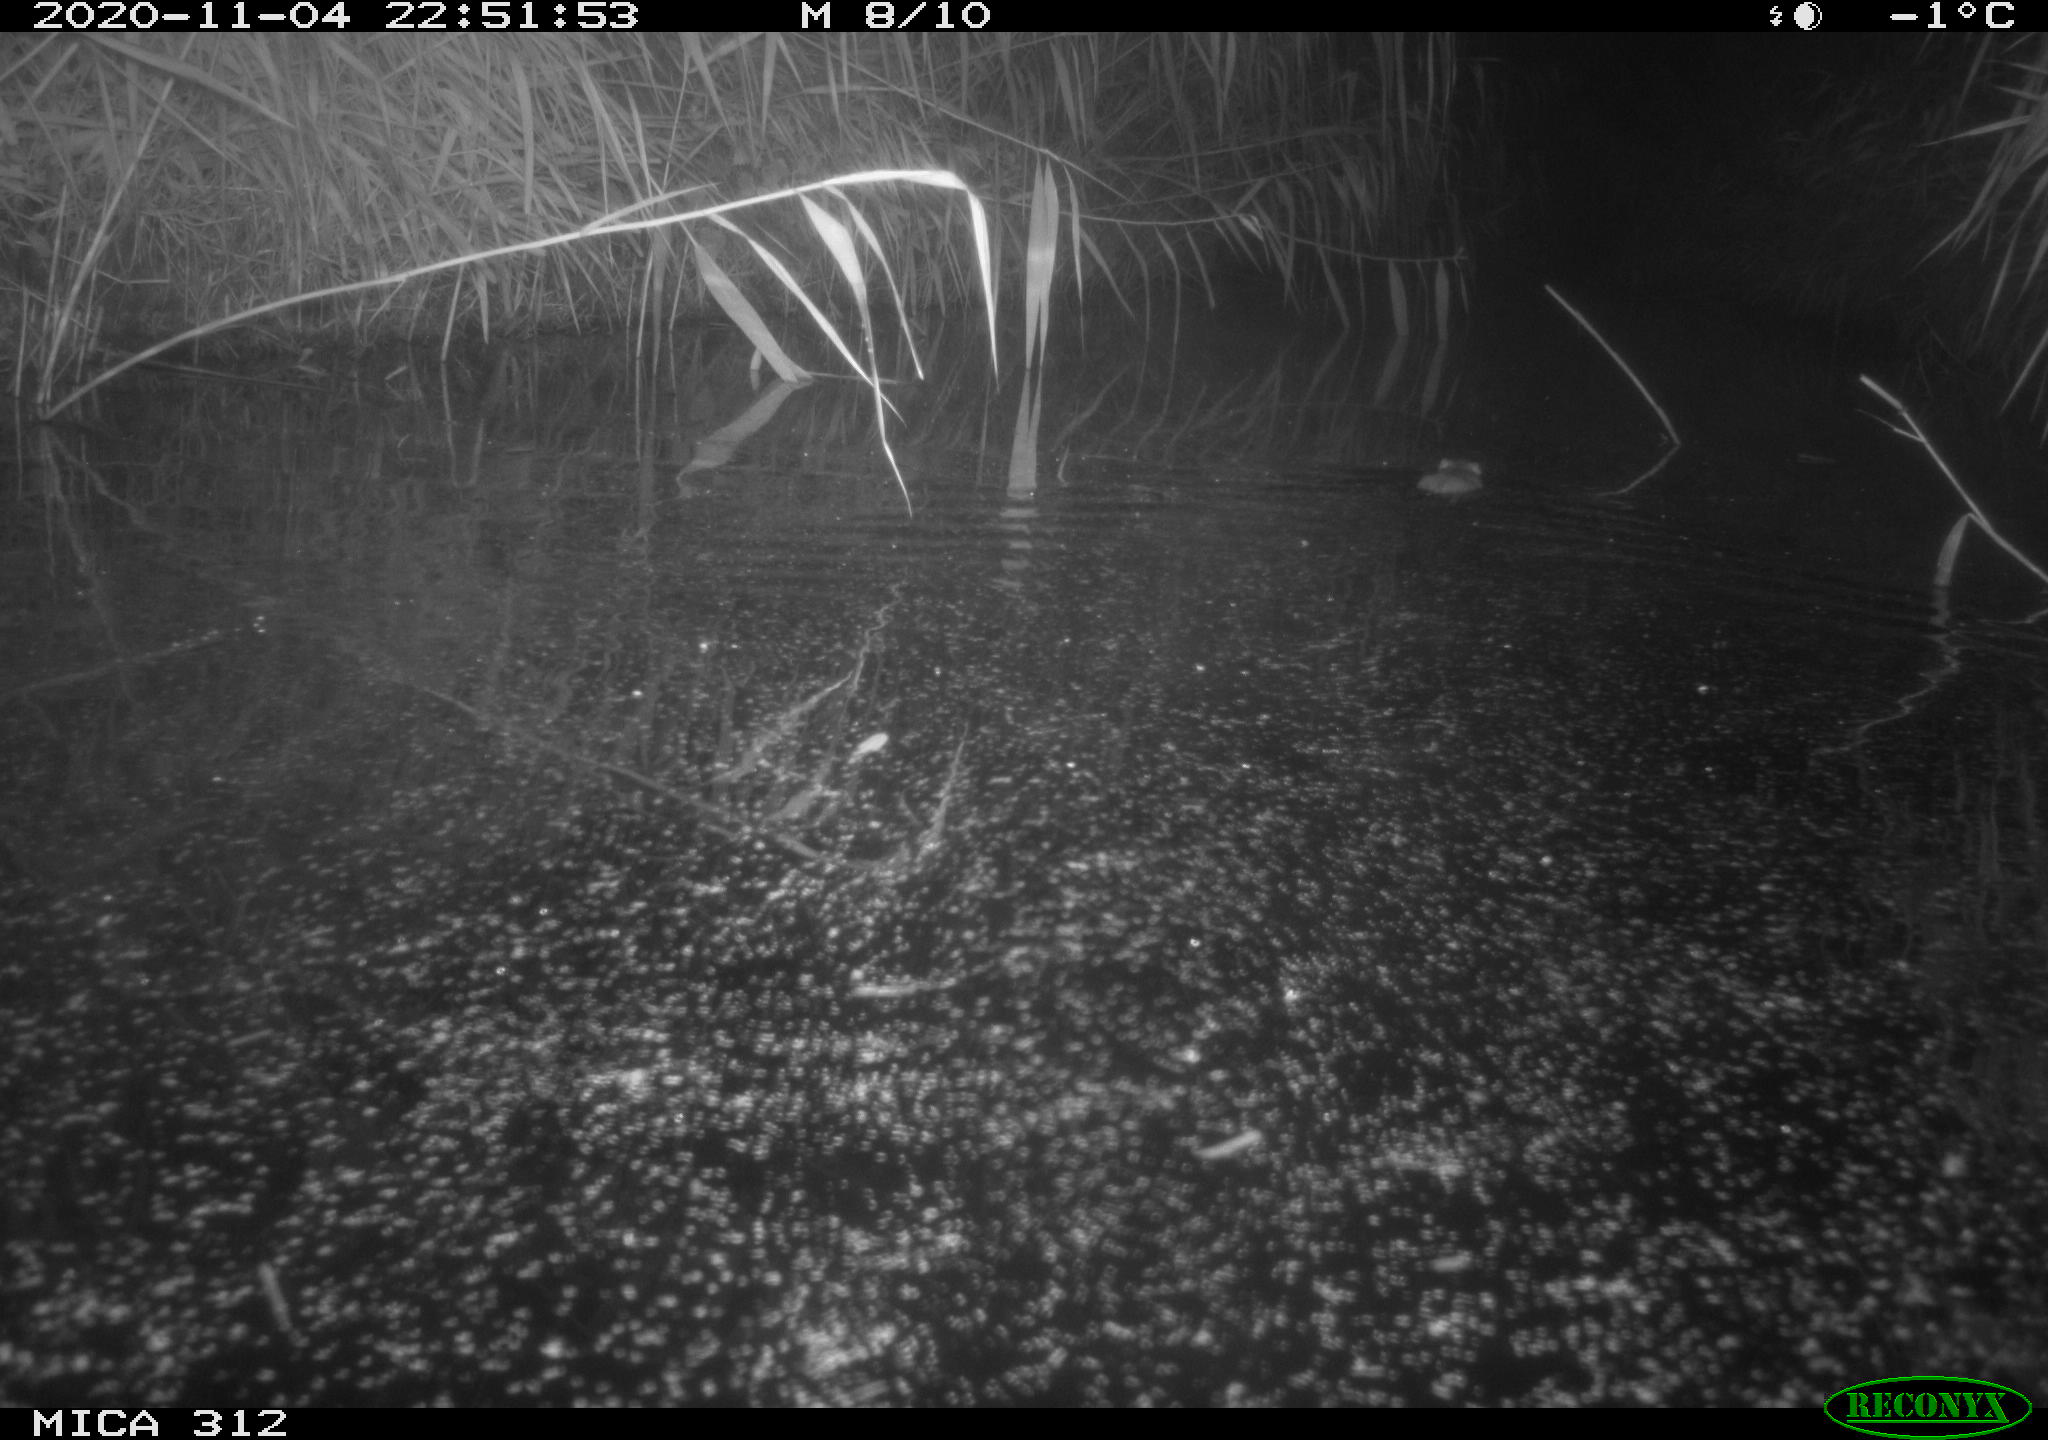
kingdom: Animalia
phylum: Chordata
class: Mammalia
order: Rodentia
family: Muridae
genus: Rattus
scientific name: Rattus norvegicus
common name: Brown rat
